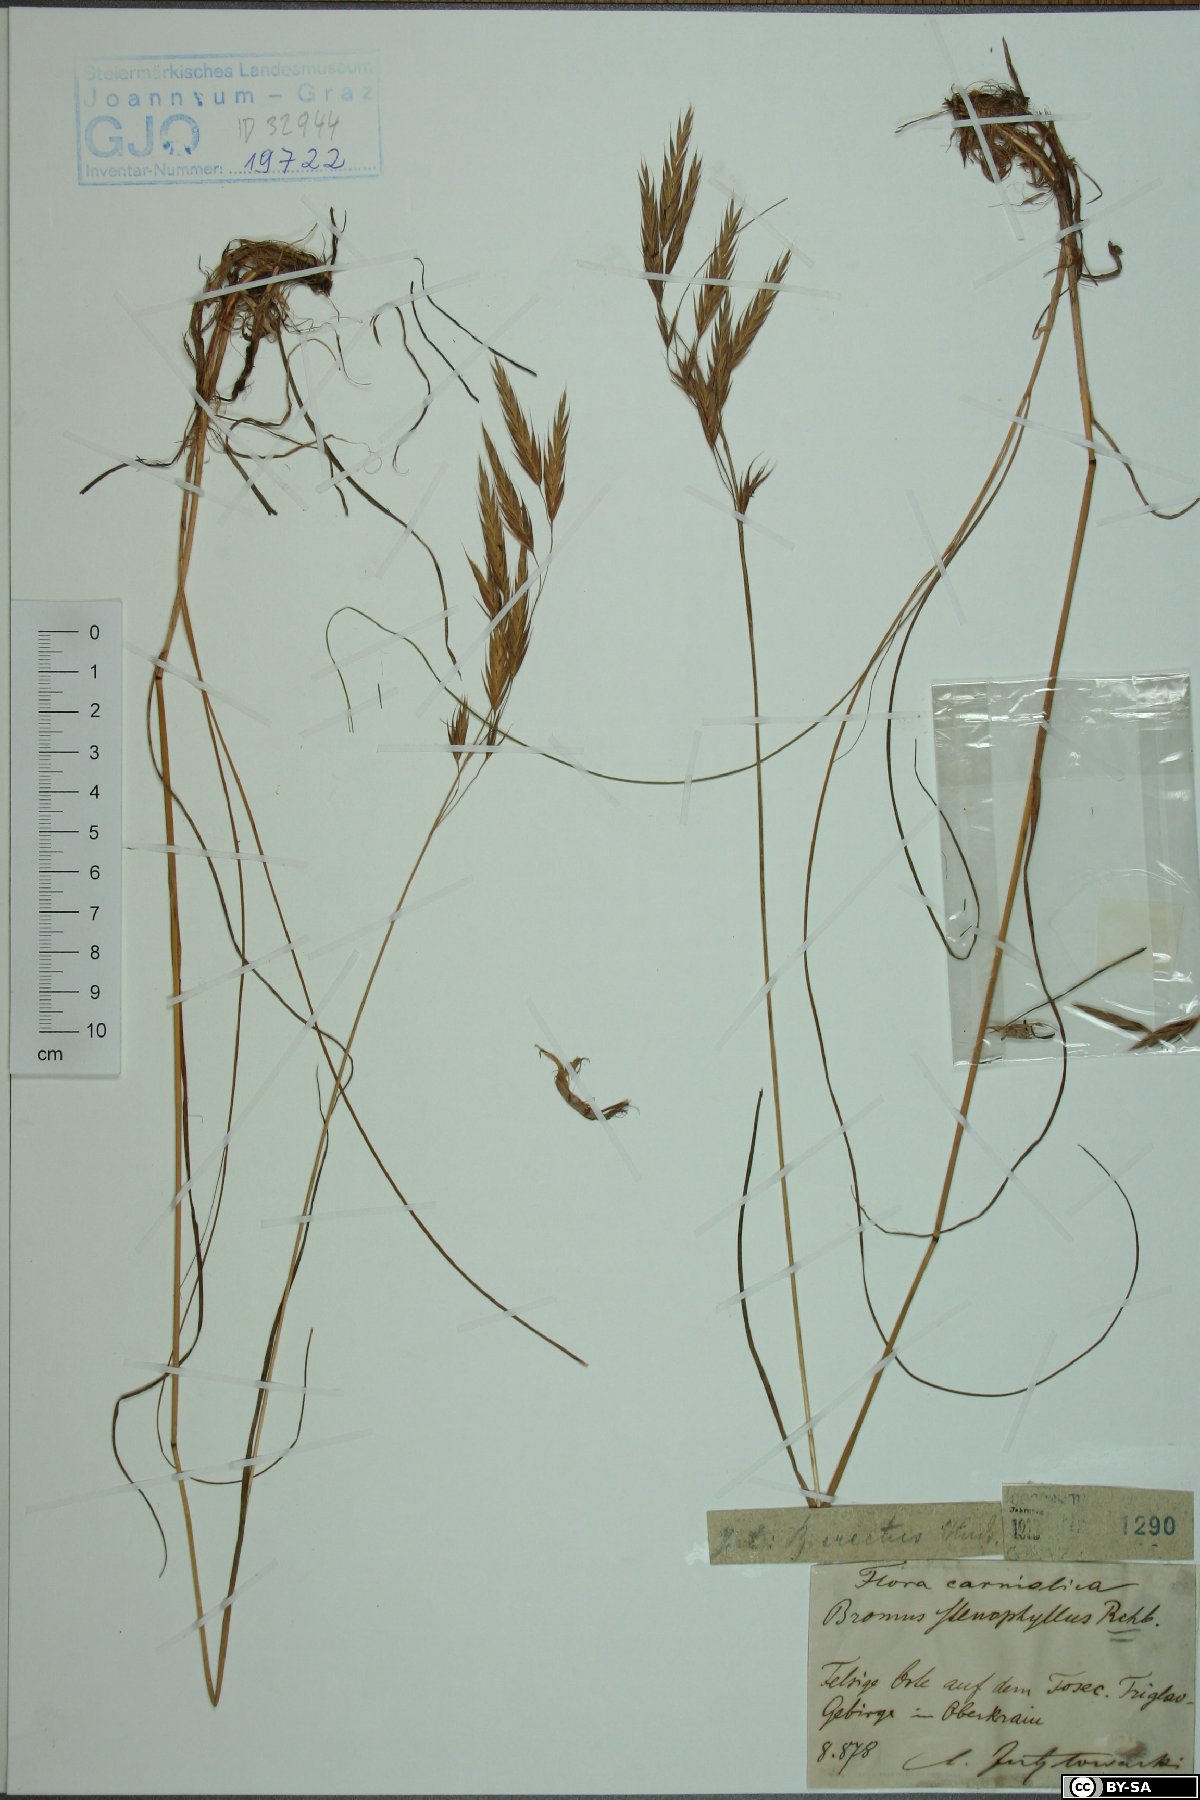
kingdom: Plantae
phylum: Tracheophyta
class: Liliopsida
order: Poales
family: Poaceae
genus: Bromus
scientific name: Bromus erectus
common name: Erect brome
